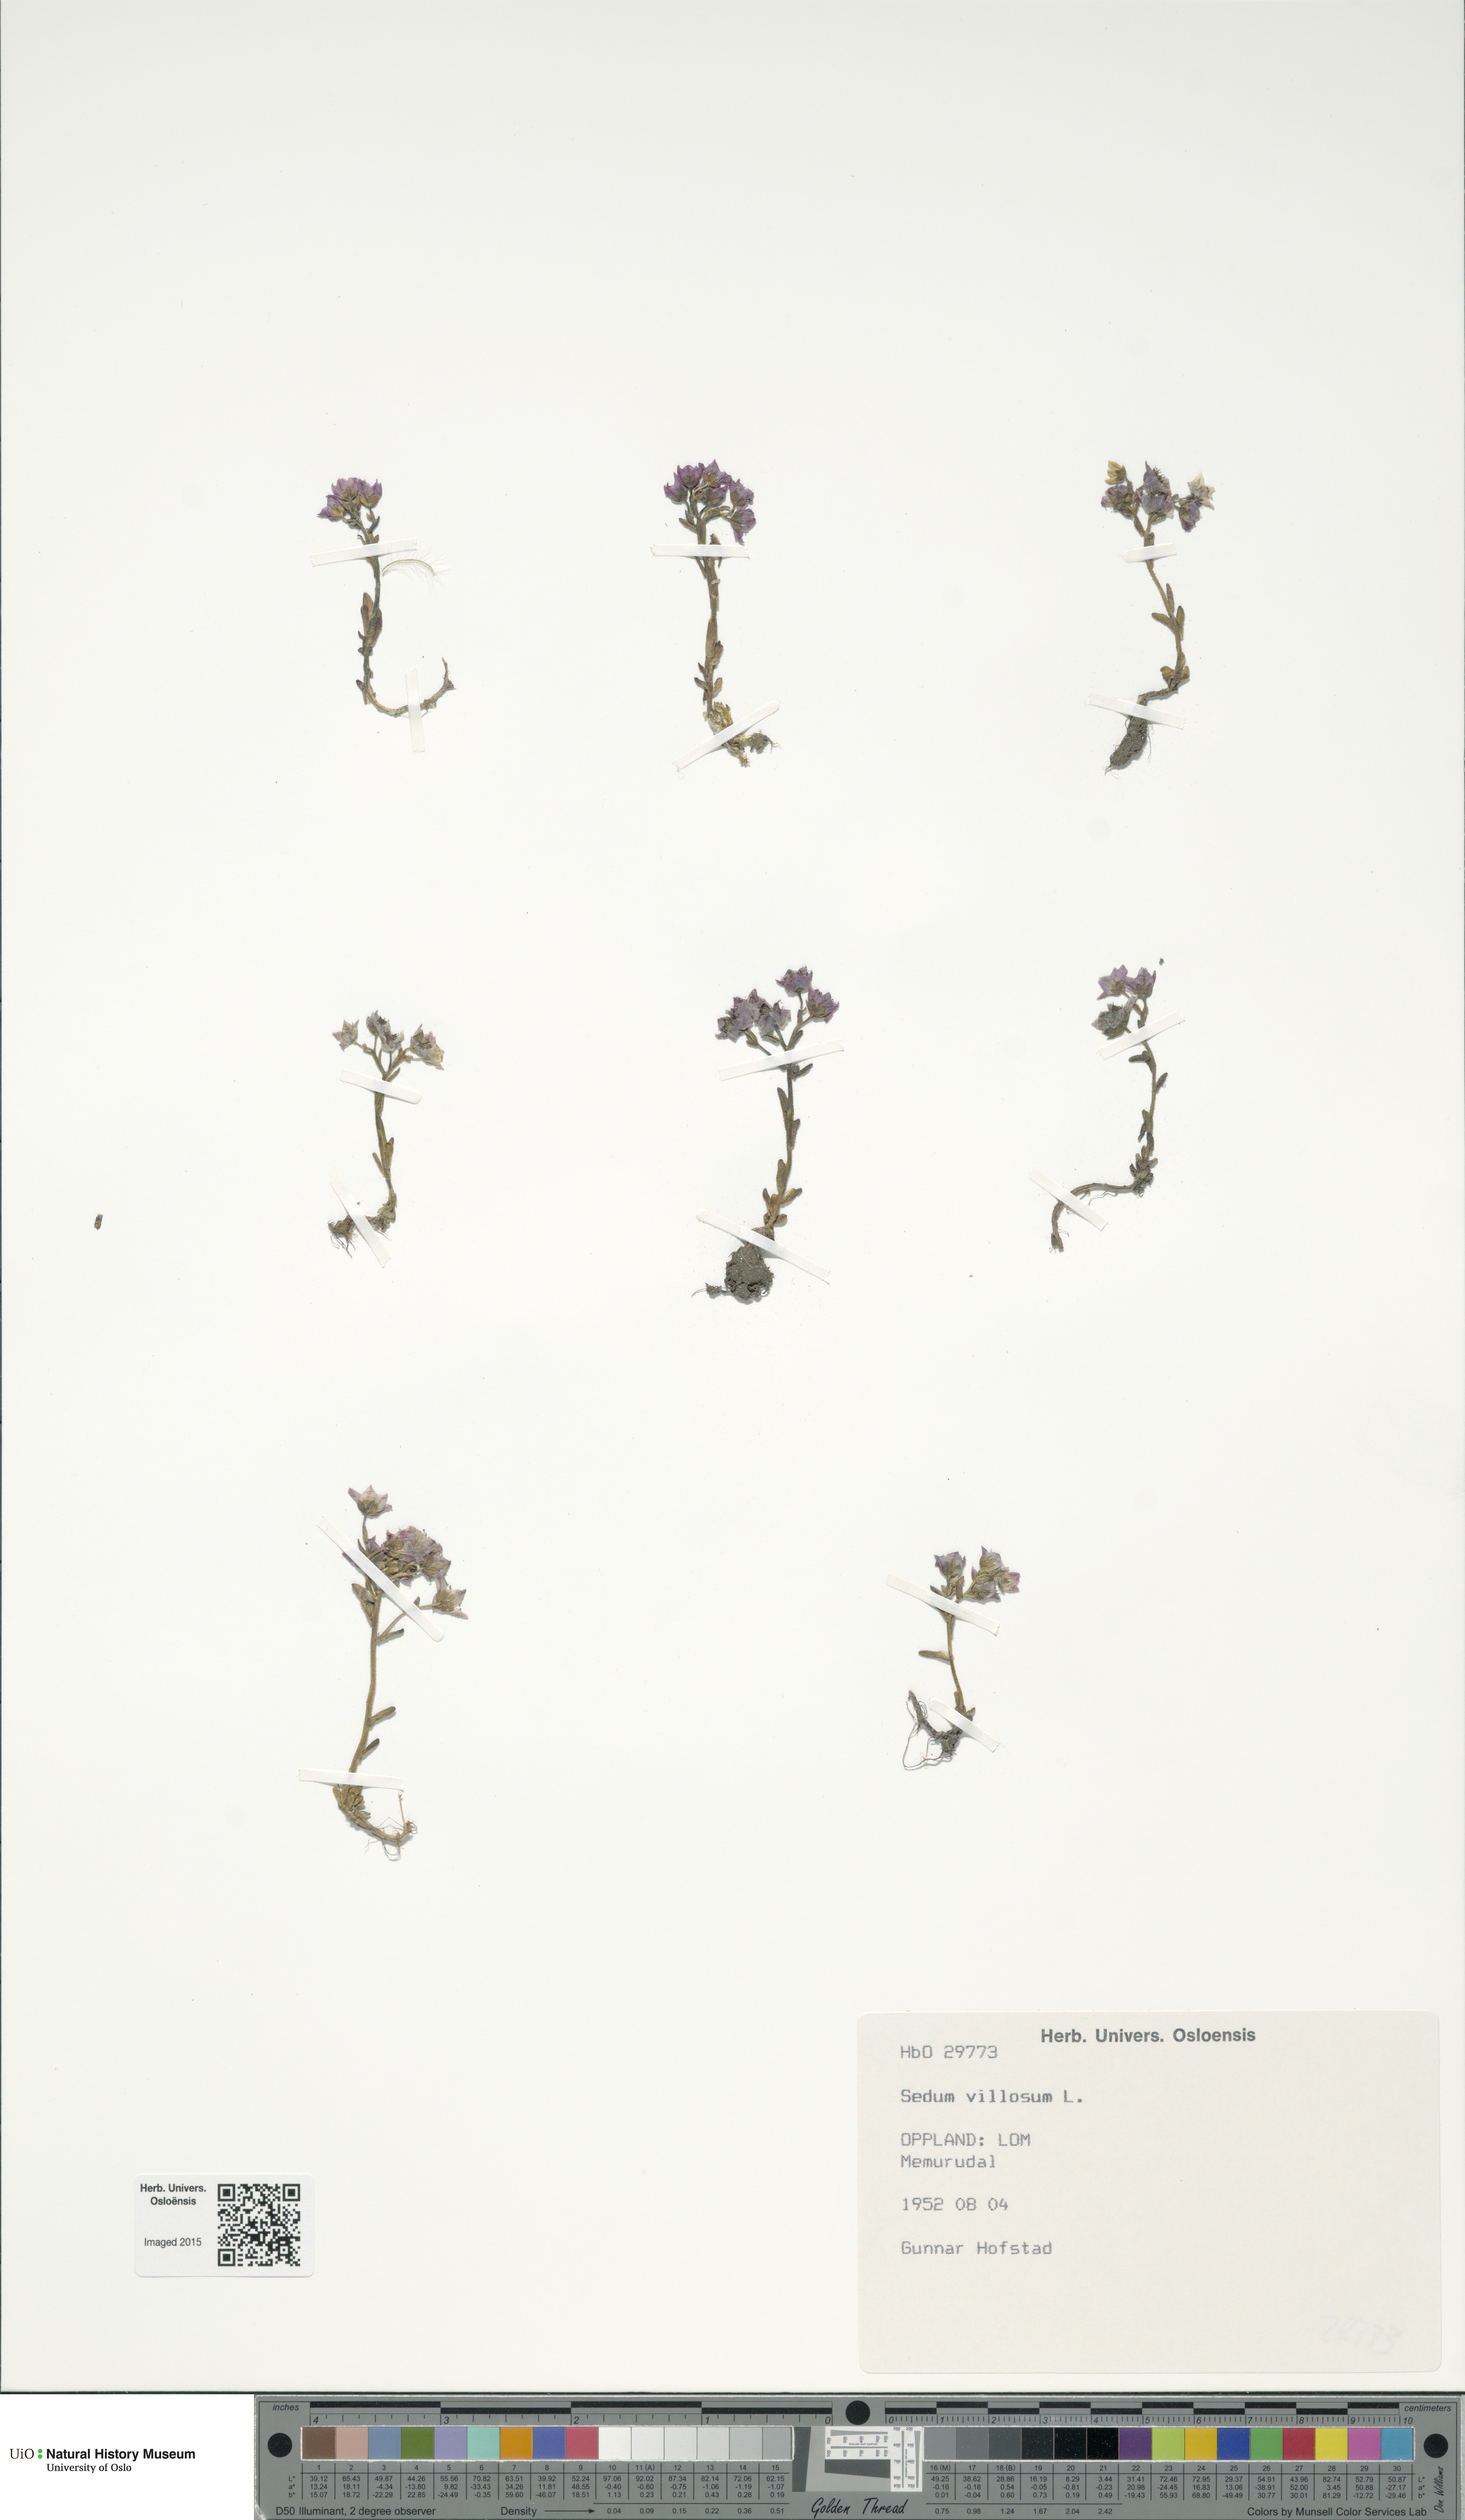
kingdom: Plantae
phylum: Tracheophyta
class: Magnoliopsida
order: Saxifragales
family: Crassulaceae
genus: Sedum
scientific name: Sedum villosum
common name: Hairy stonecrop
